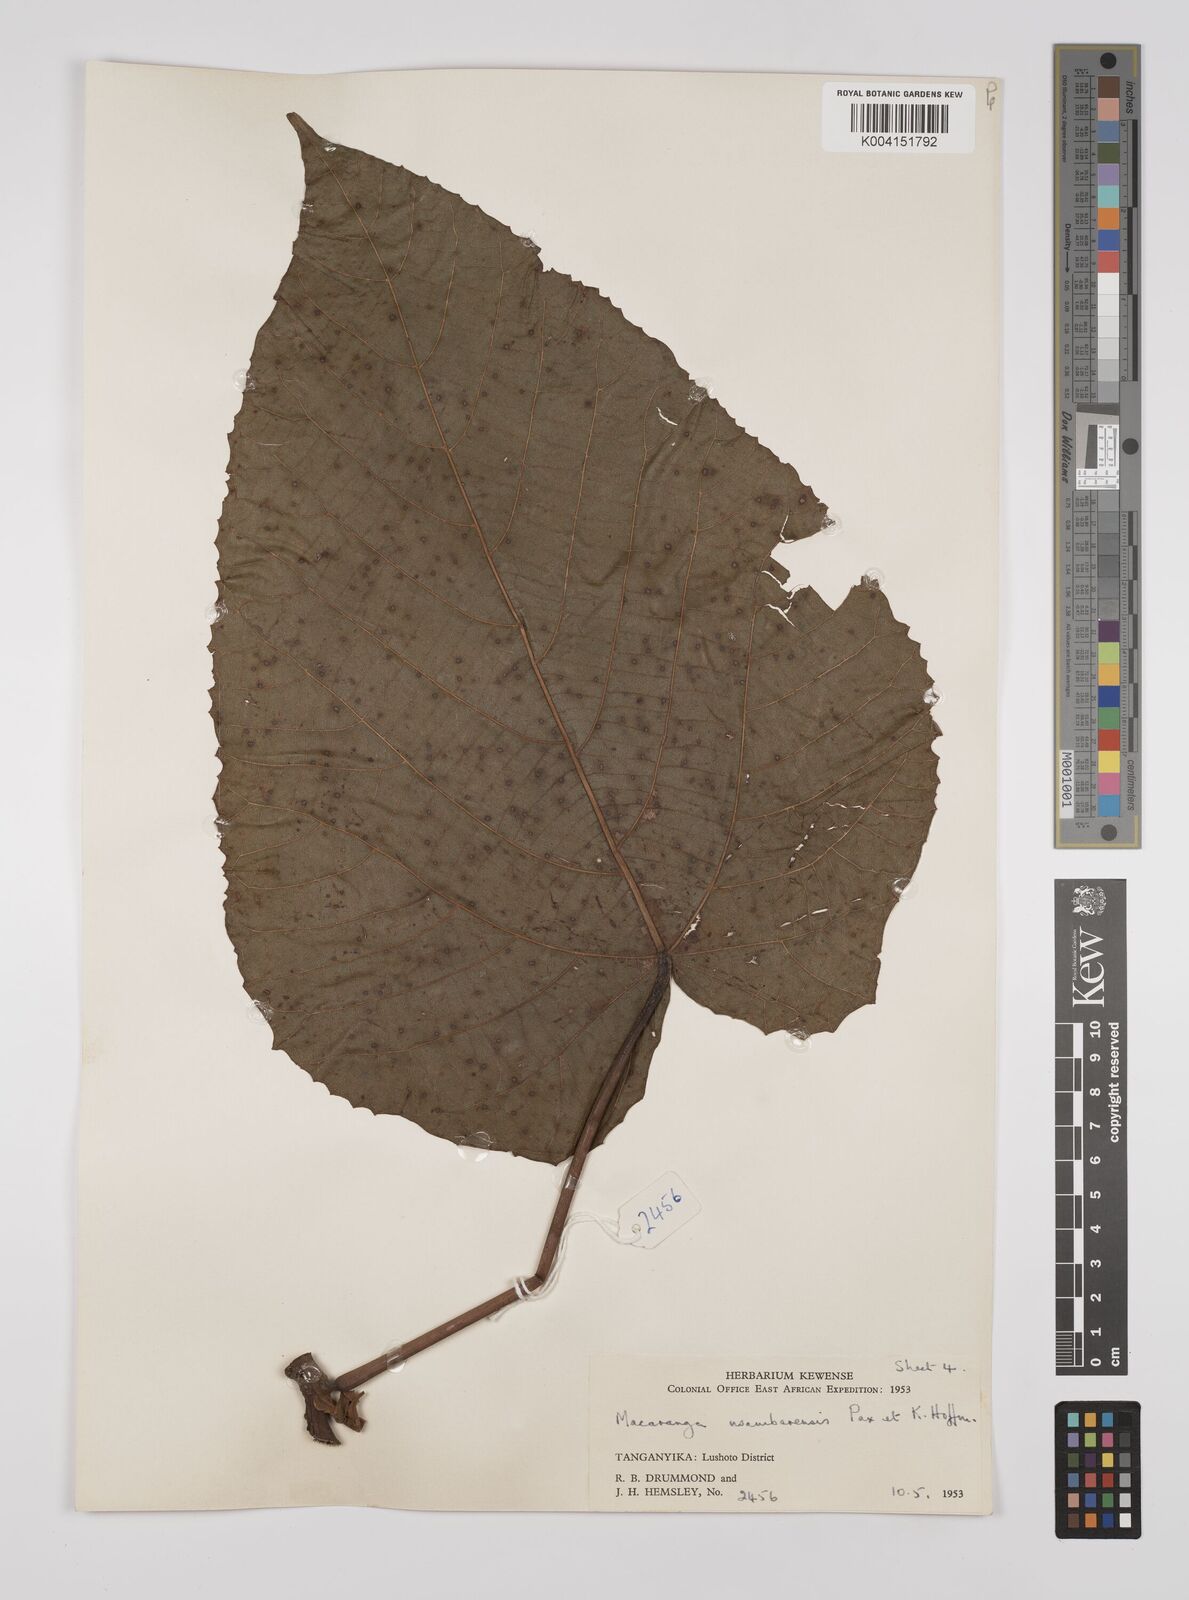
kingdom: Plantae
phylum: Tracheophyta
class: Magnoliopsida
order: Malpighiales
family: Euphorbiaceae
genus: Macaranga
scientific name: Macaranga capensis
